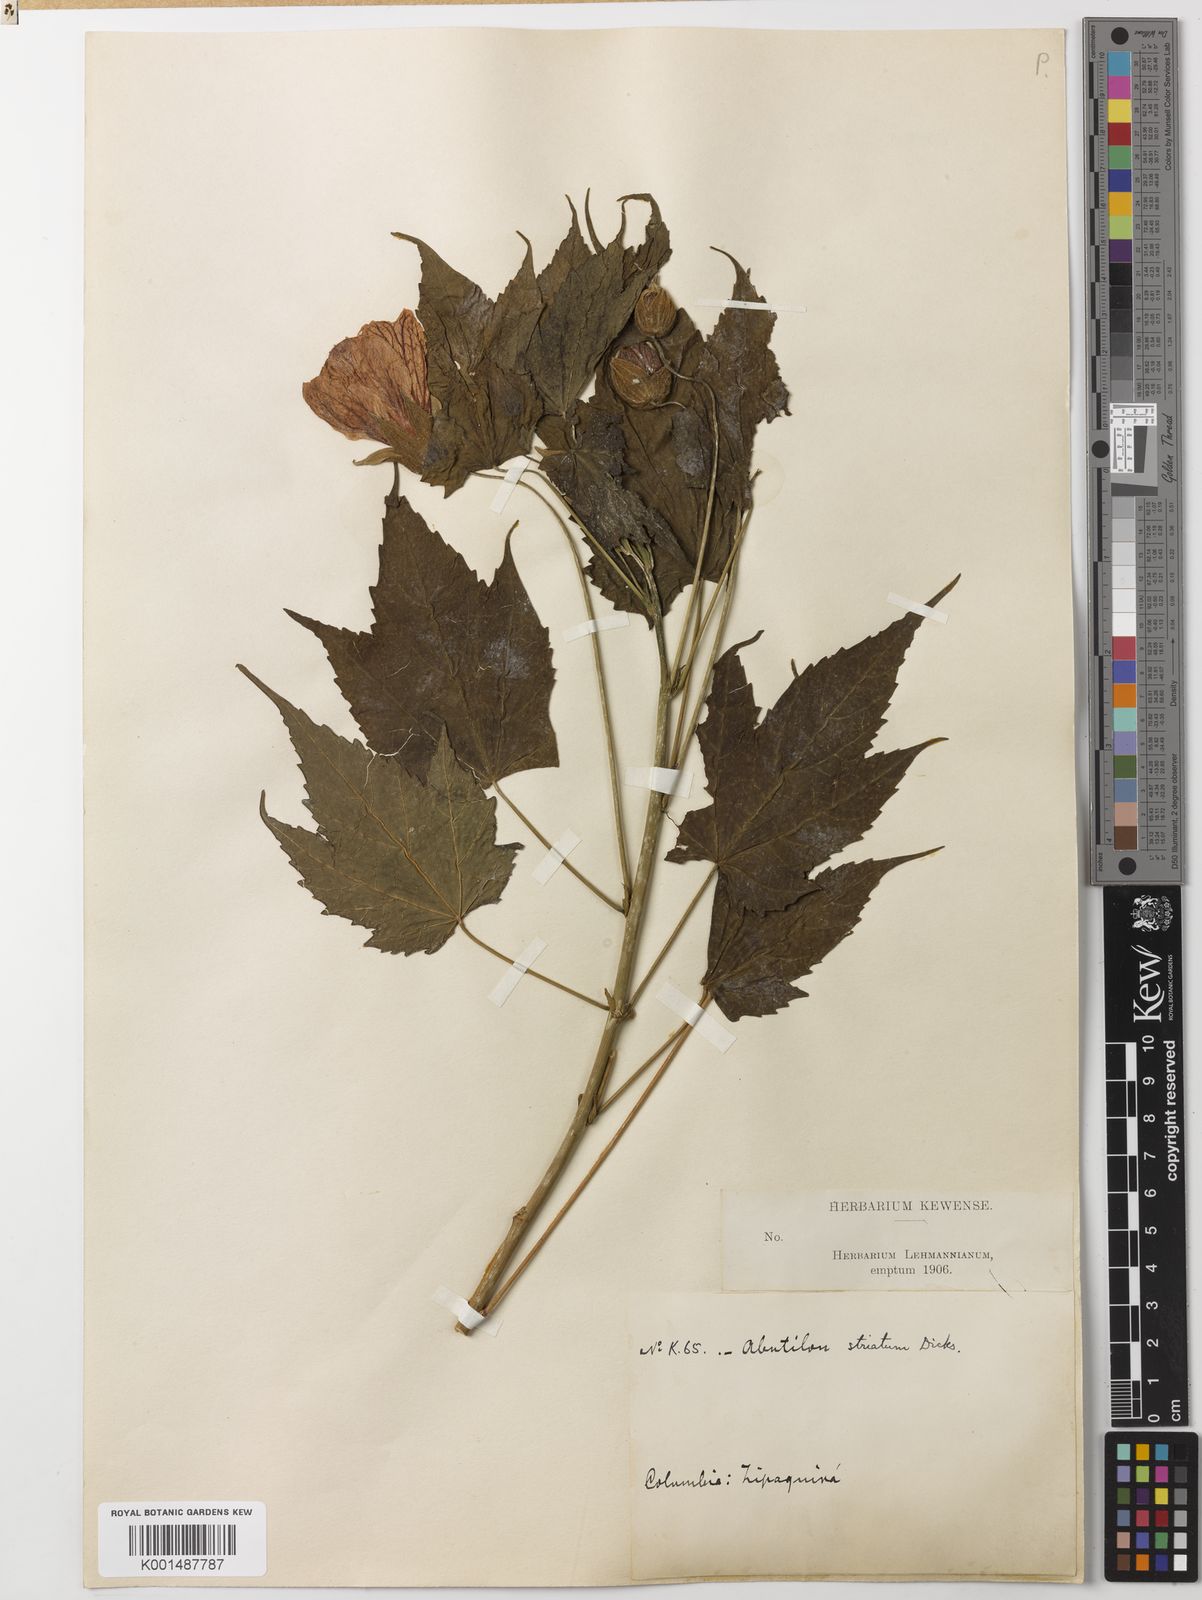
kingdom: Plantae
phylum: Tracheophyta
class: Magnoliopsida
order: Malvales
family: Malvaceae
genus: Callianthe
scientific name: Callianthe striata
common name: Flowering-maple
